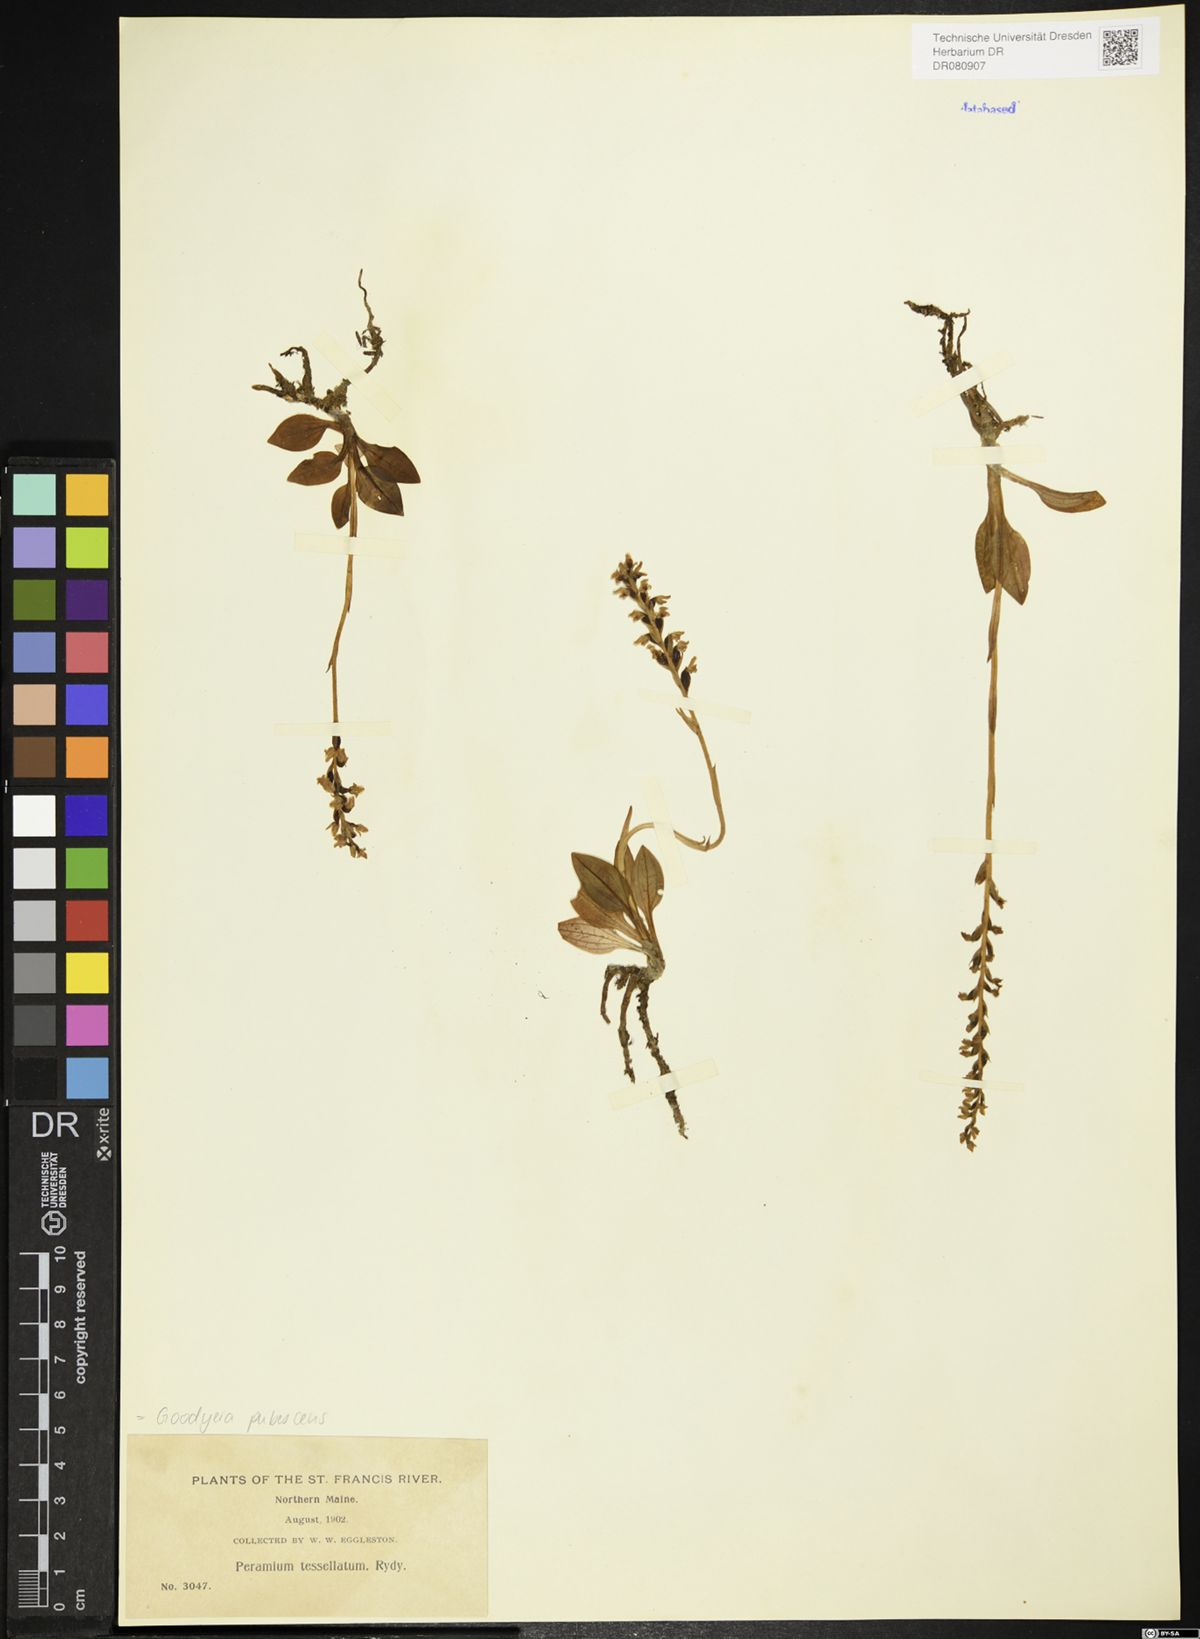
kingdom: Plantae
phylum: Tracheophyta
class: Liliopsida
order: Asparagales
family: Orchidaceae
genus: Goodyera
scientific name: Goodyera pubescens
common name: Downy rattlesnake-plantain
